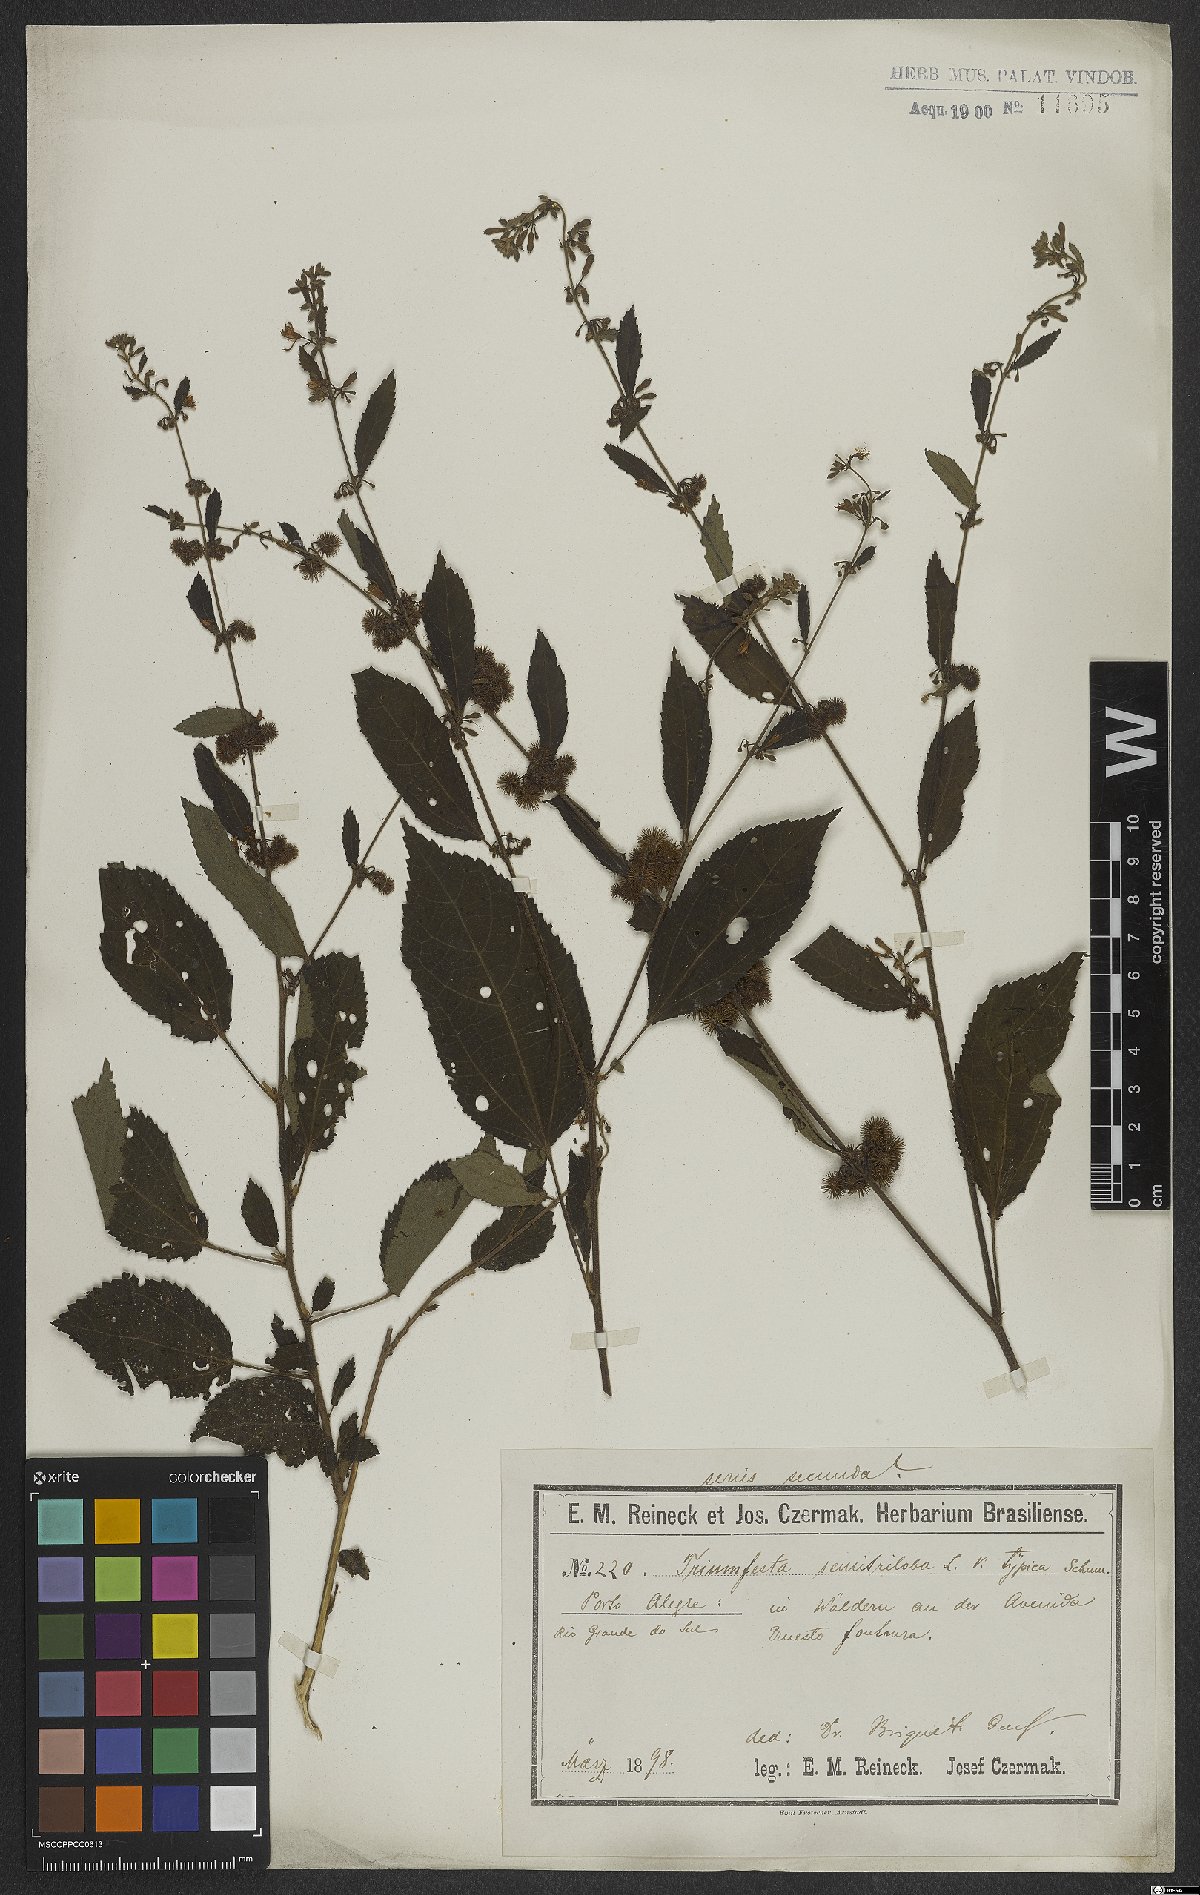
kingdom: Plantae
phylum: Tracheophyta
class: Magnoliopsida
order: Malvales
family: Malvaceae
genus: Triumfetta
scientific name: Triumfetta semitriloba
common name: Sacramento burbark
